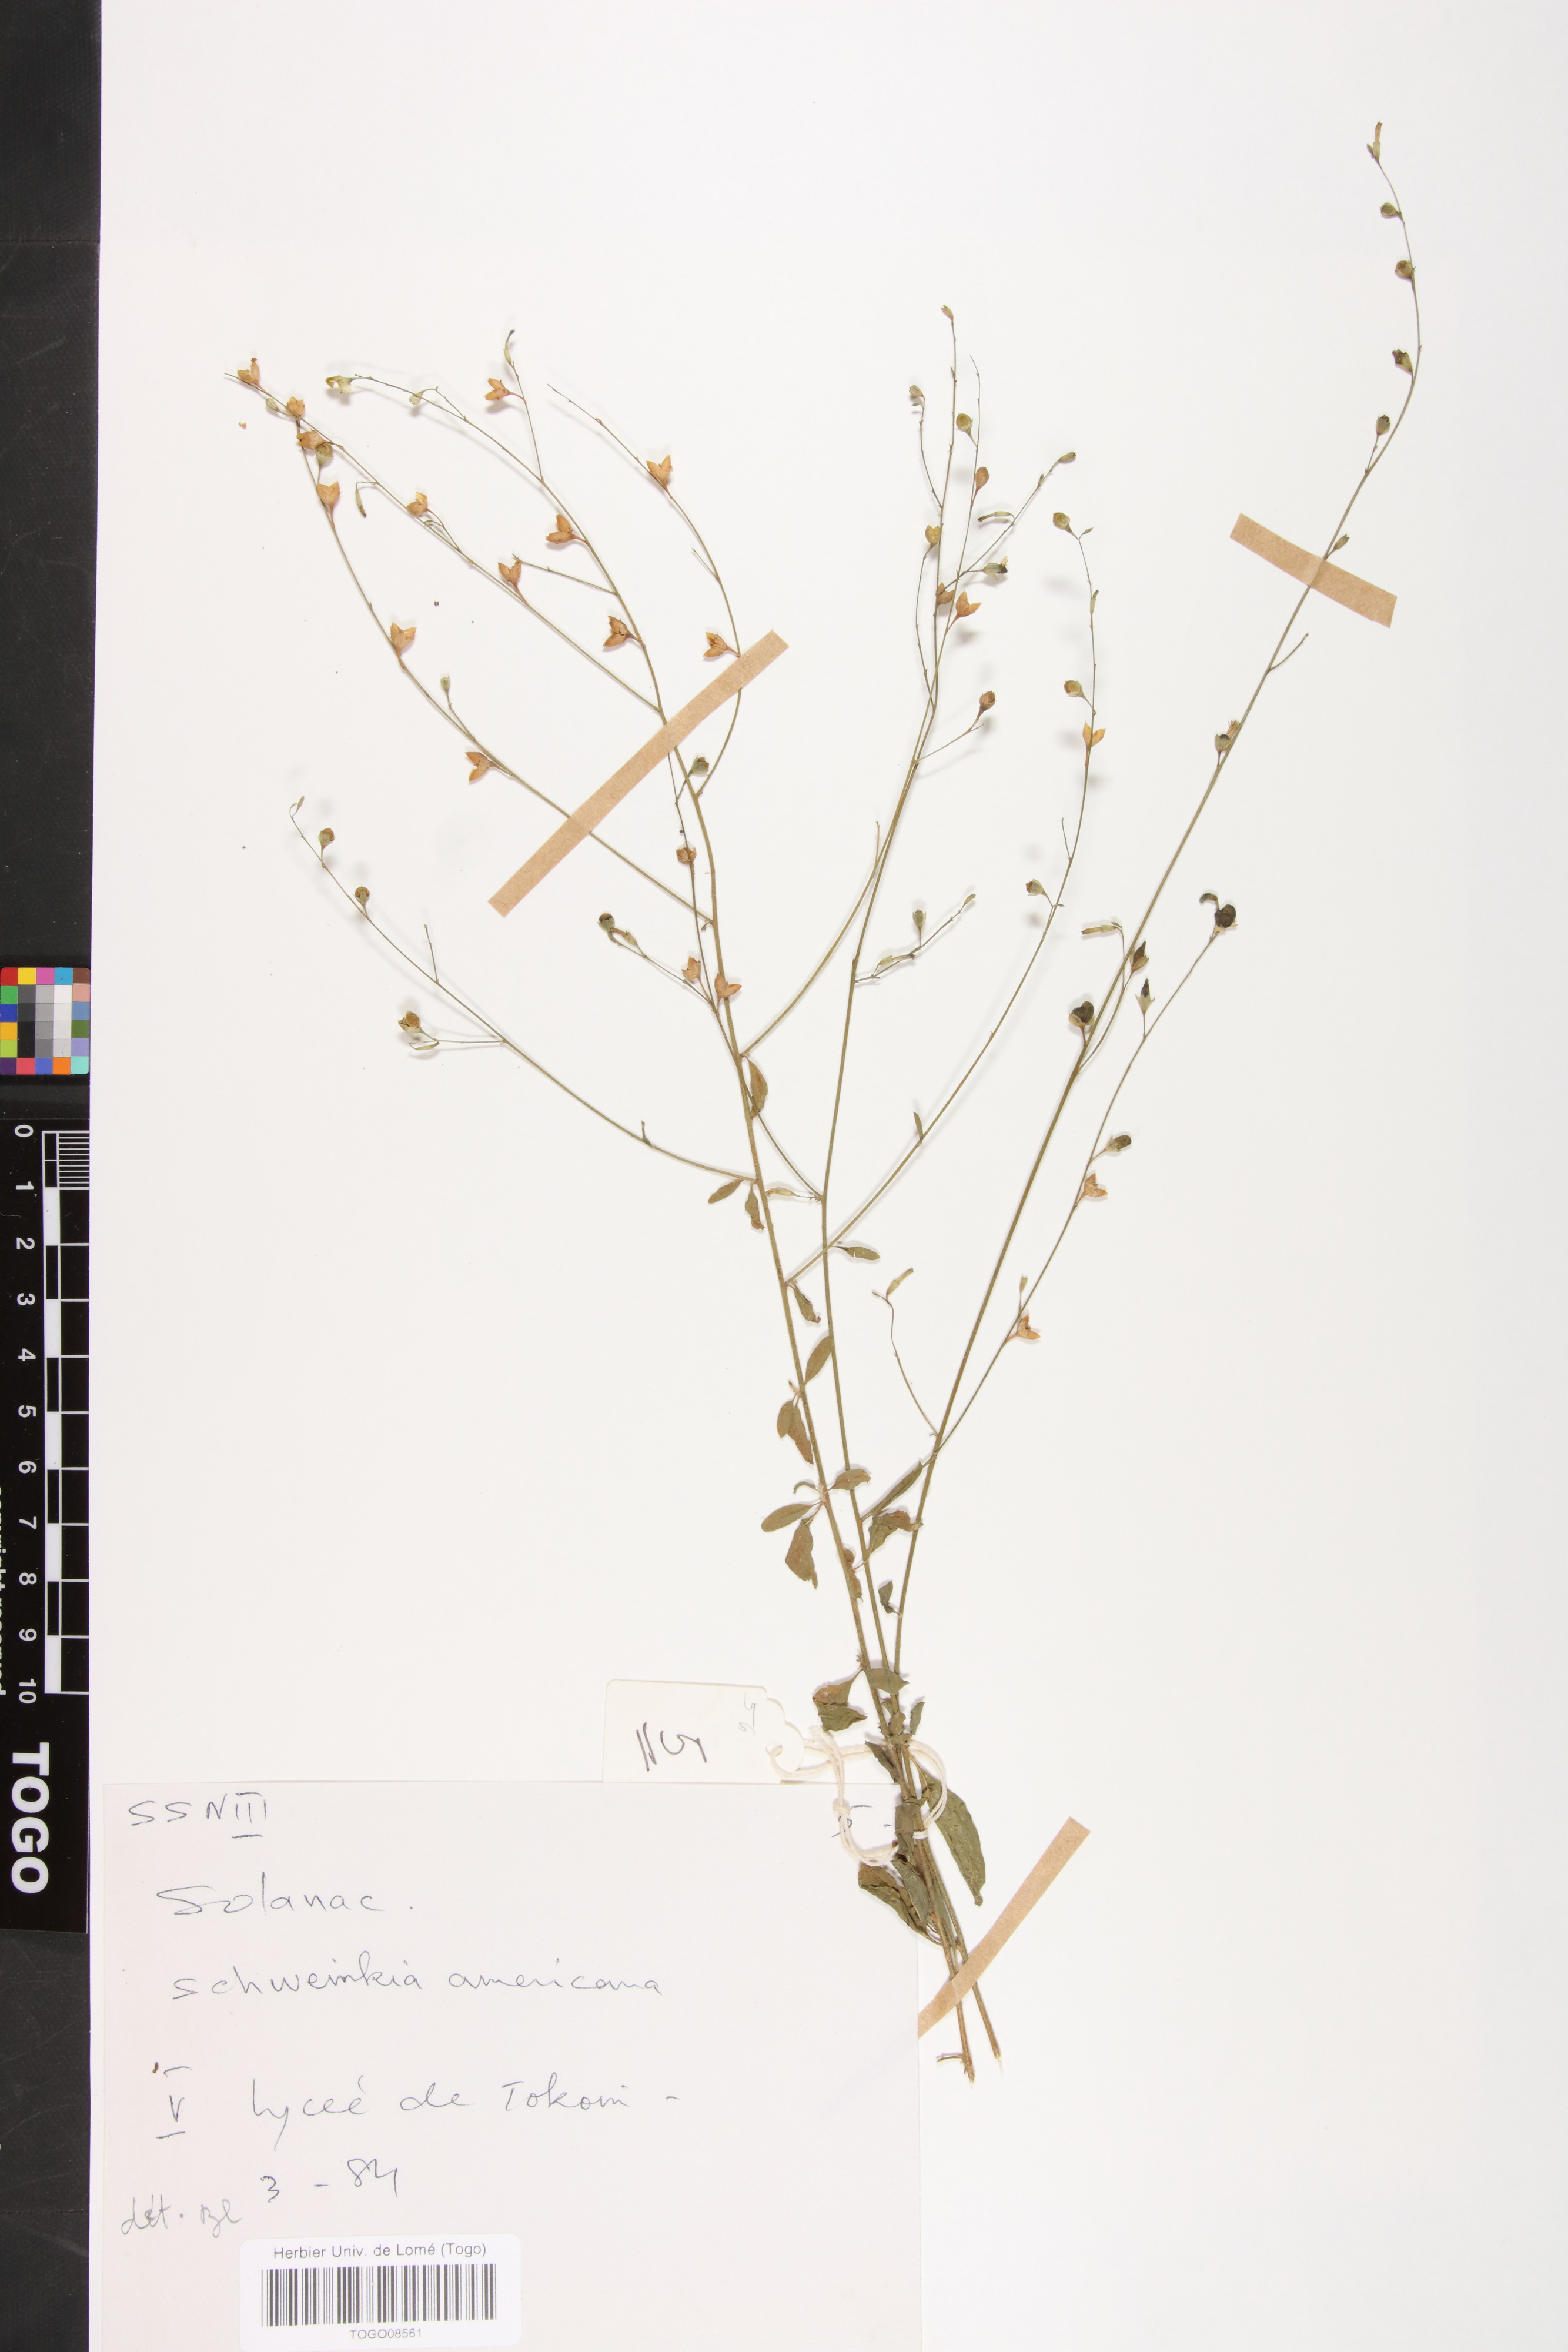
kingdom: Plantae
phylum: Tracheophyta
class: Magnoliopsida
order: Solanales
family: Solanaceae
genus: Schwenckia
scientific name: Schwenckia americana
